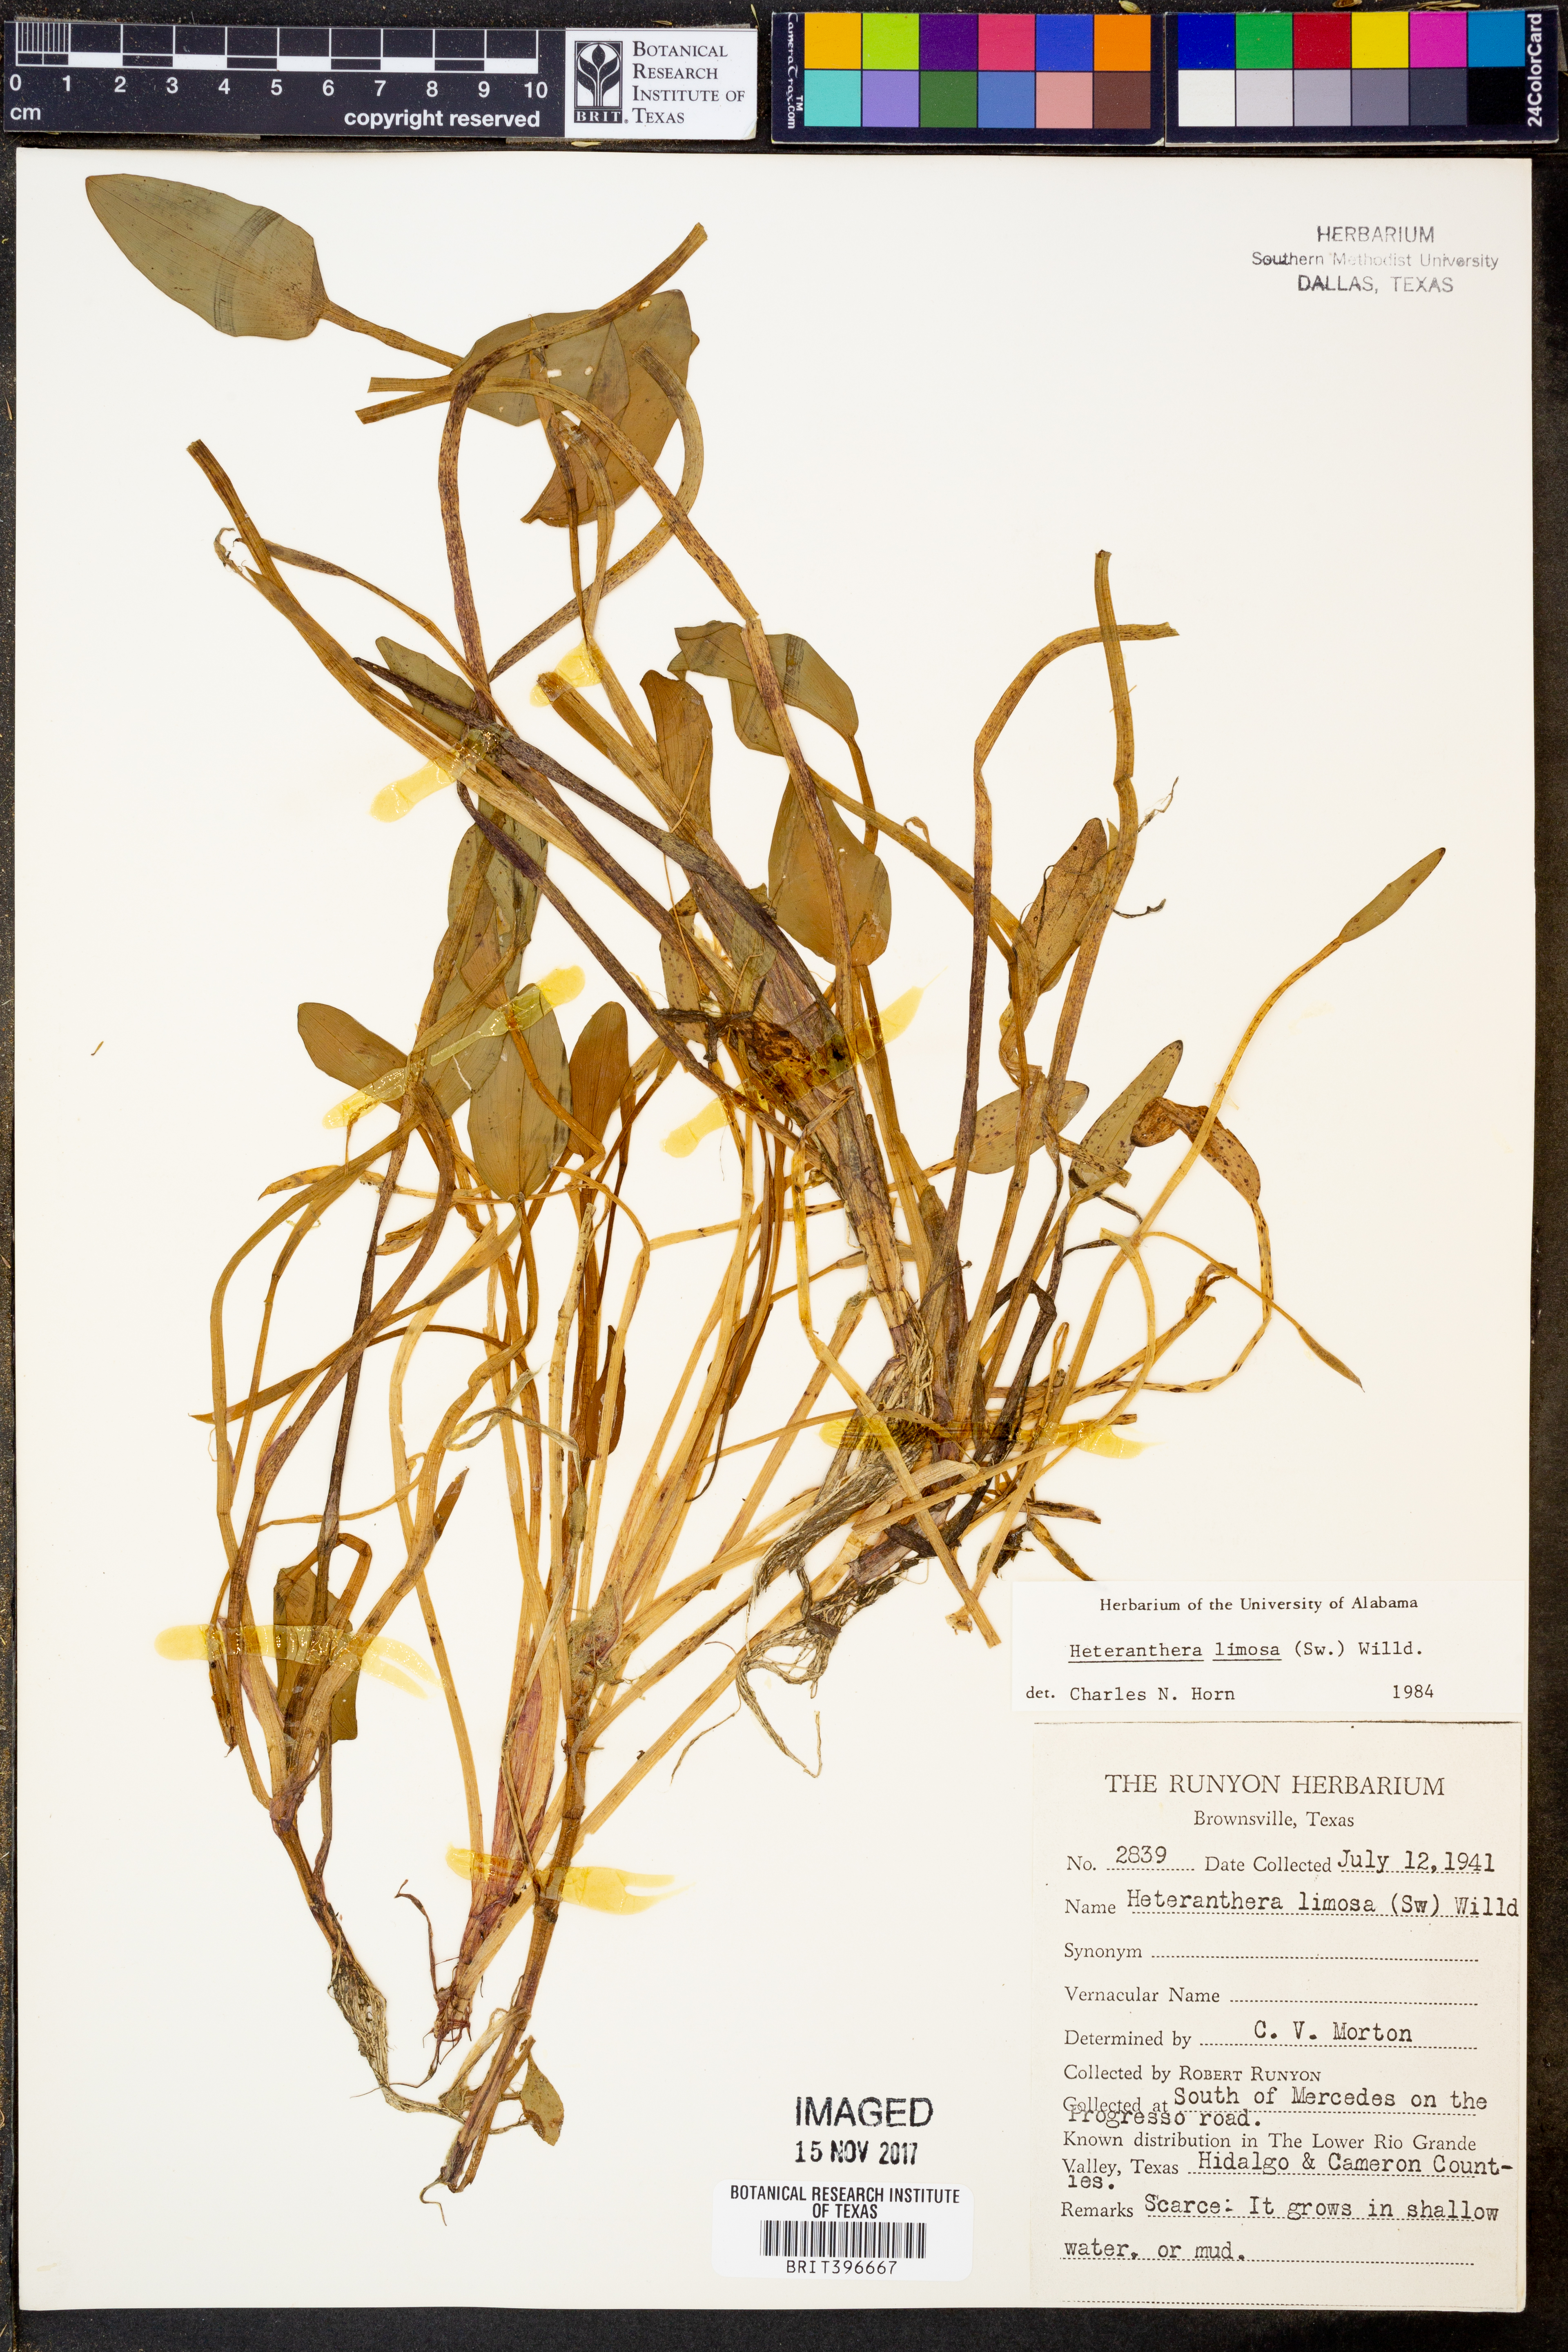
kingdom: Plantae
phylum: Tracheophyta
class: Liliopsida
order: Commelinales
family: Pontederiaceae
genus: Heteranthera
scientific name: Heteranthera limosa
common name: Blue mud-plantain
